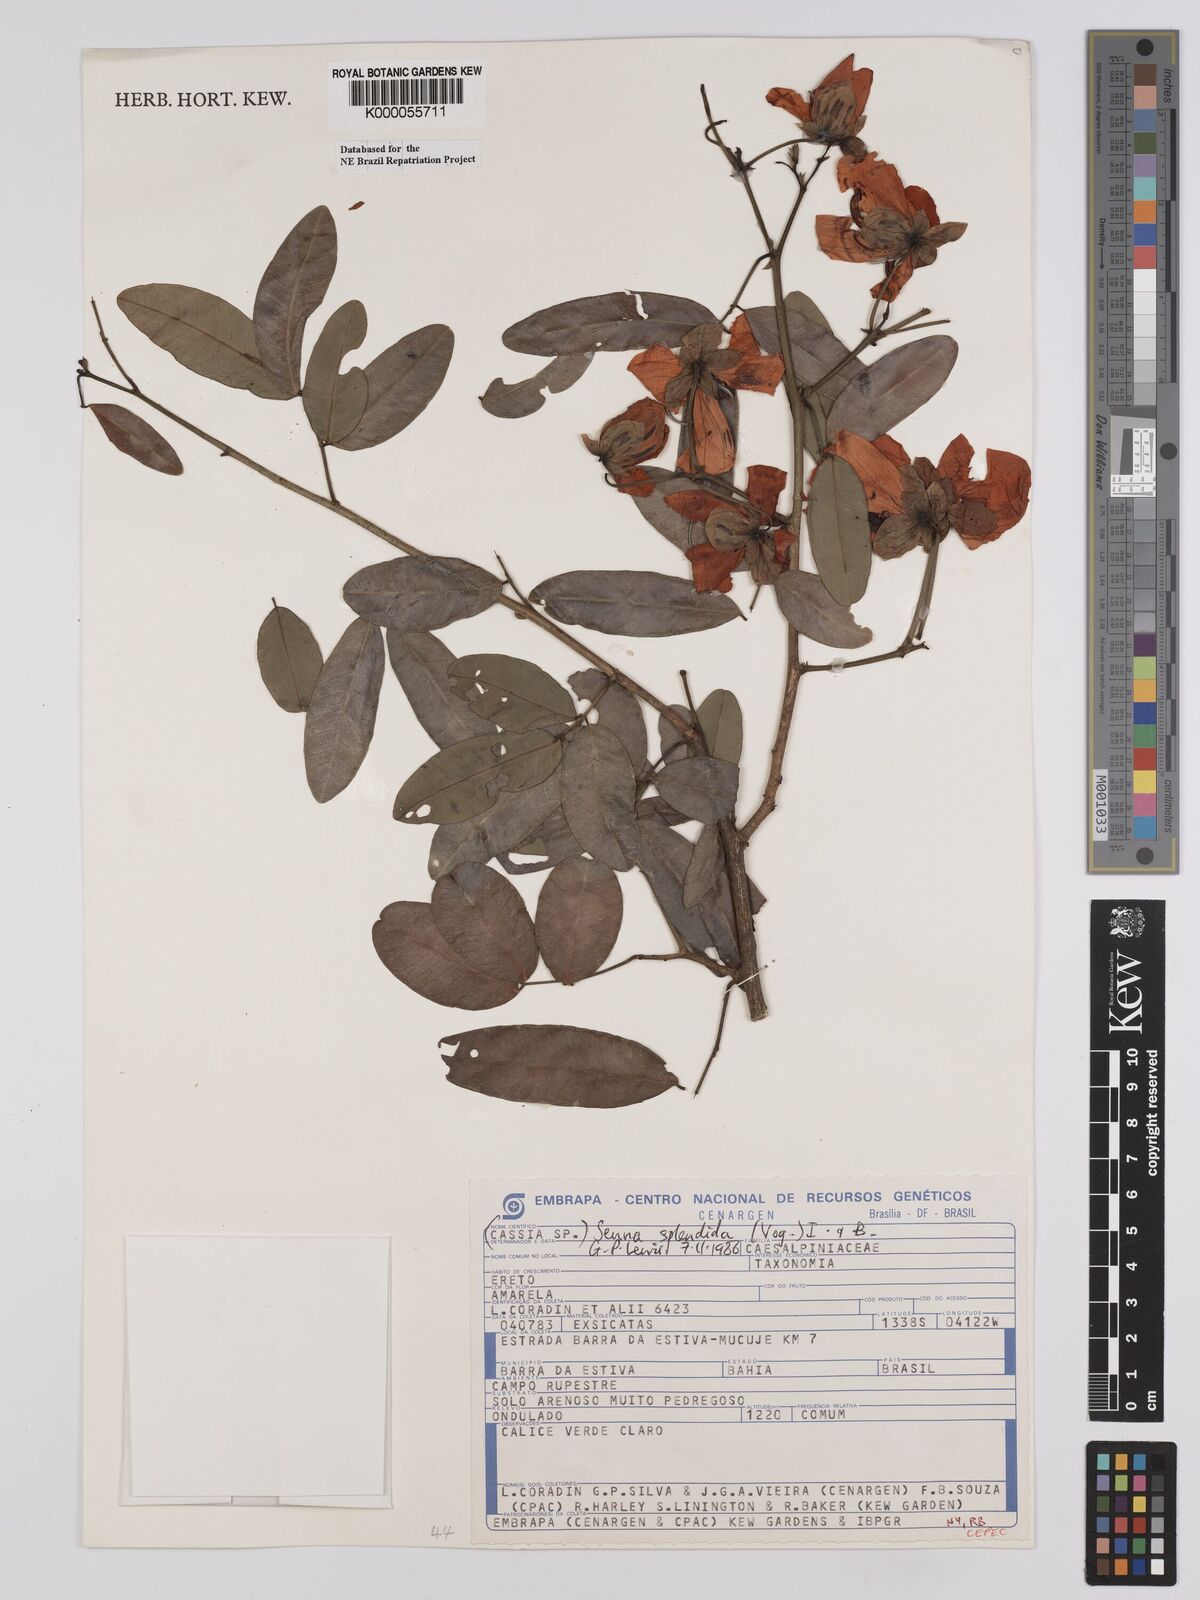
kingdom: Plantae
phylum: Tracheophyta
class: Magnoliopsida
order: Fabales
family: Fabaceae
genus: Senna
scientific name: Senna splendida
